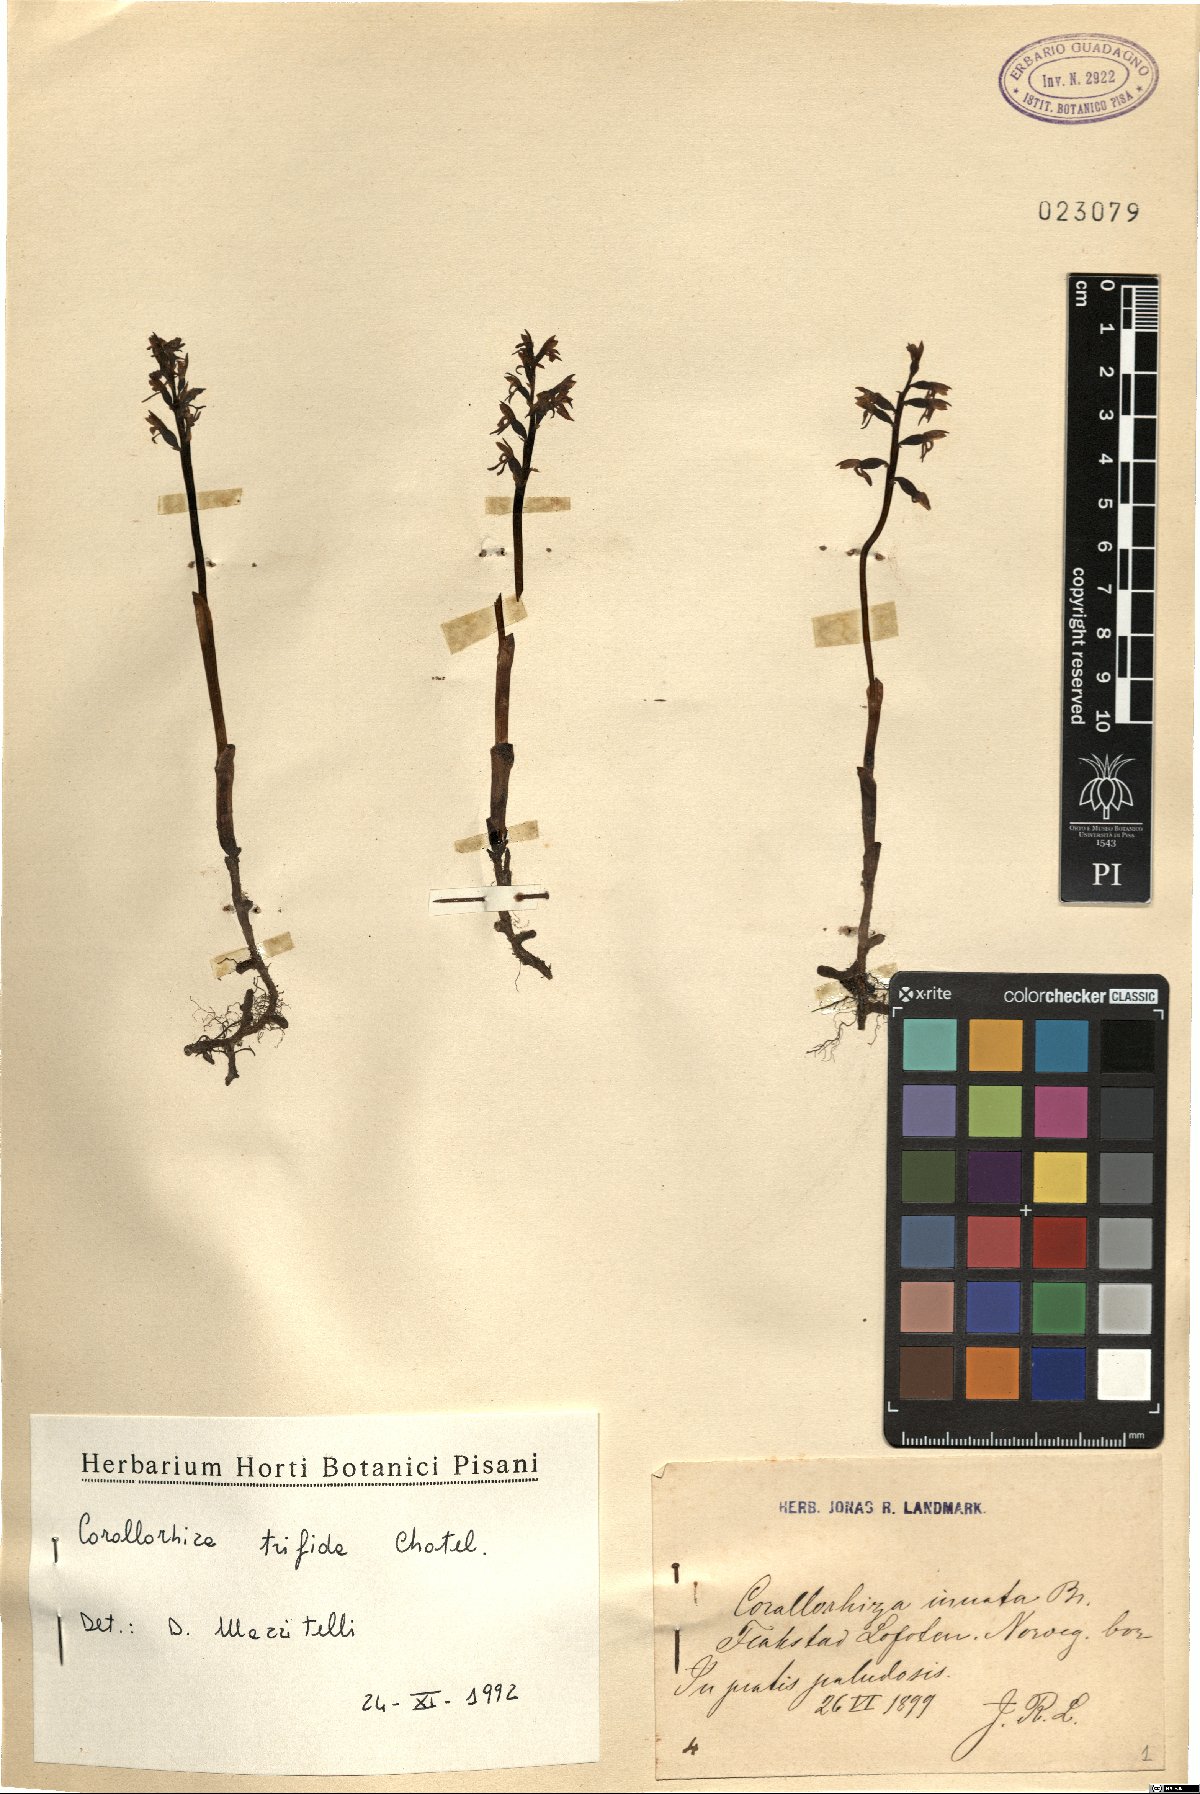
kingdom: Plantae
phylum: Tracheophyta
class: Liliopsida
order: Asparagales
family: Orchidaceae
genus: Corallorhiza
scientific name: Corallorhiza trifida
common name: Yellow coralroot
